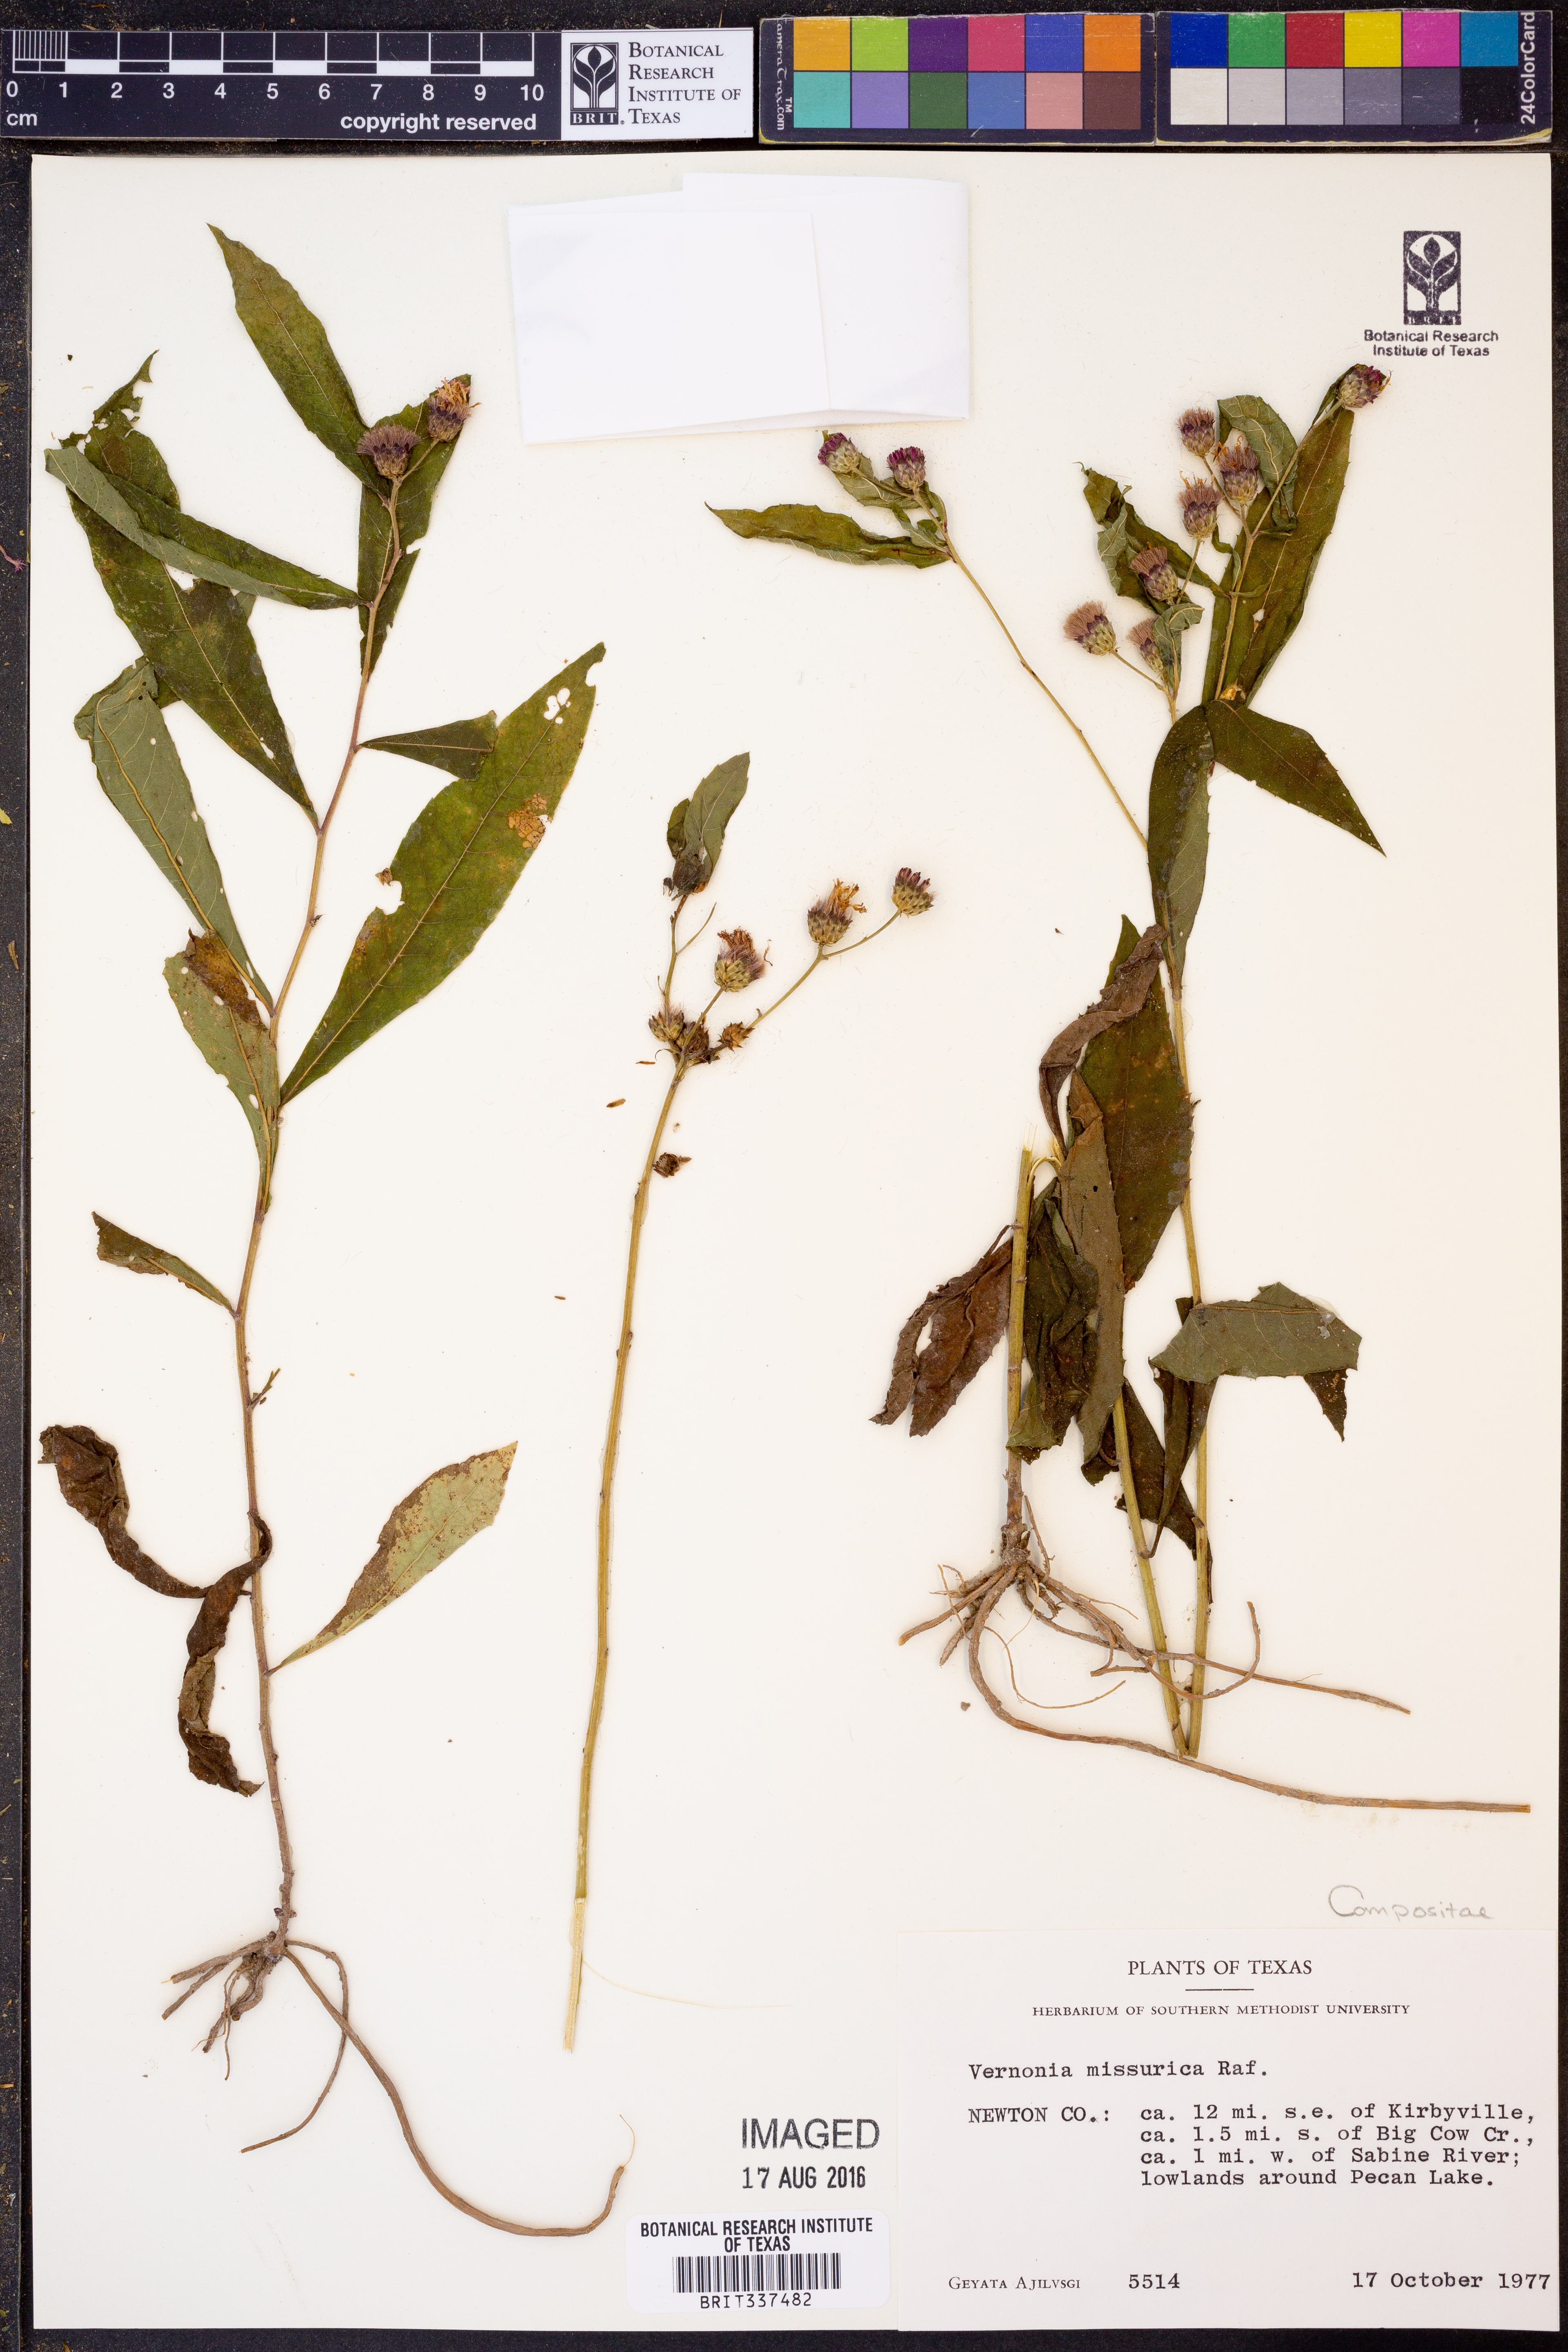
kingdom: Plantae
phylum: Tracheophyta
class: Magnoliopsida
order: Asterales
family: Asteraceae
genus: Vernonia
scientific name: Vernonia missurica
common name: Missouri ironweed
